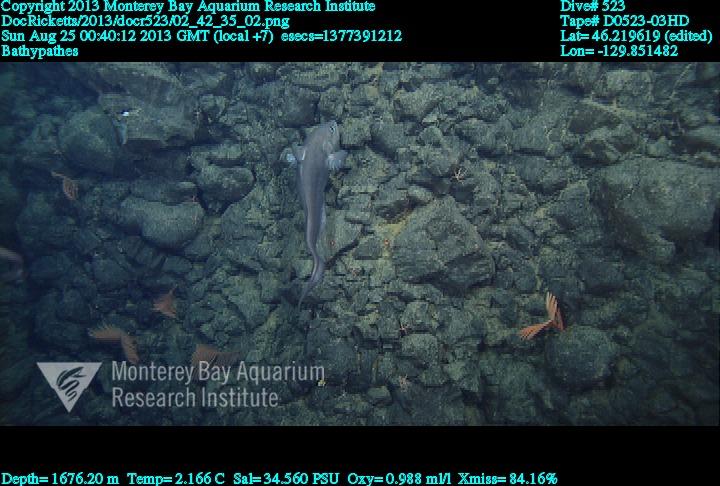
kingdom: Animalia
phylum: Cnidaria
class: Anthozoa
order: Antipatharia
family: Schizopathidae
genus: Bathypathes
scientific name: Bathypathes
